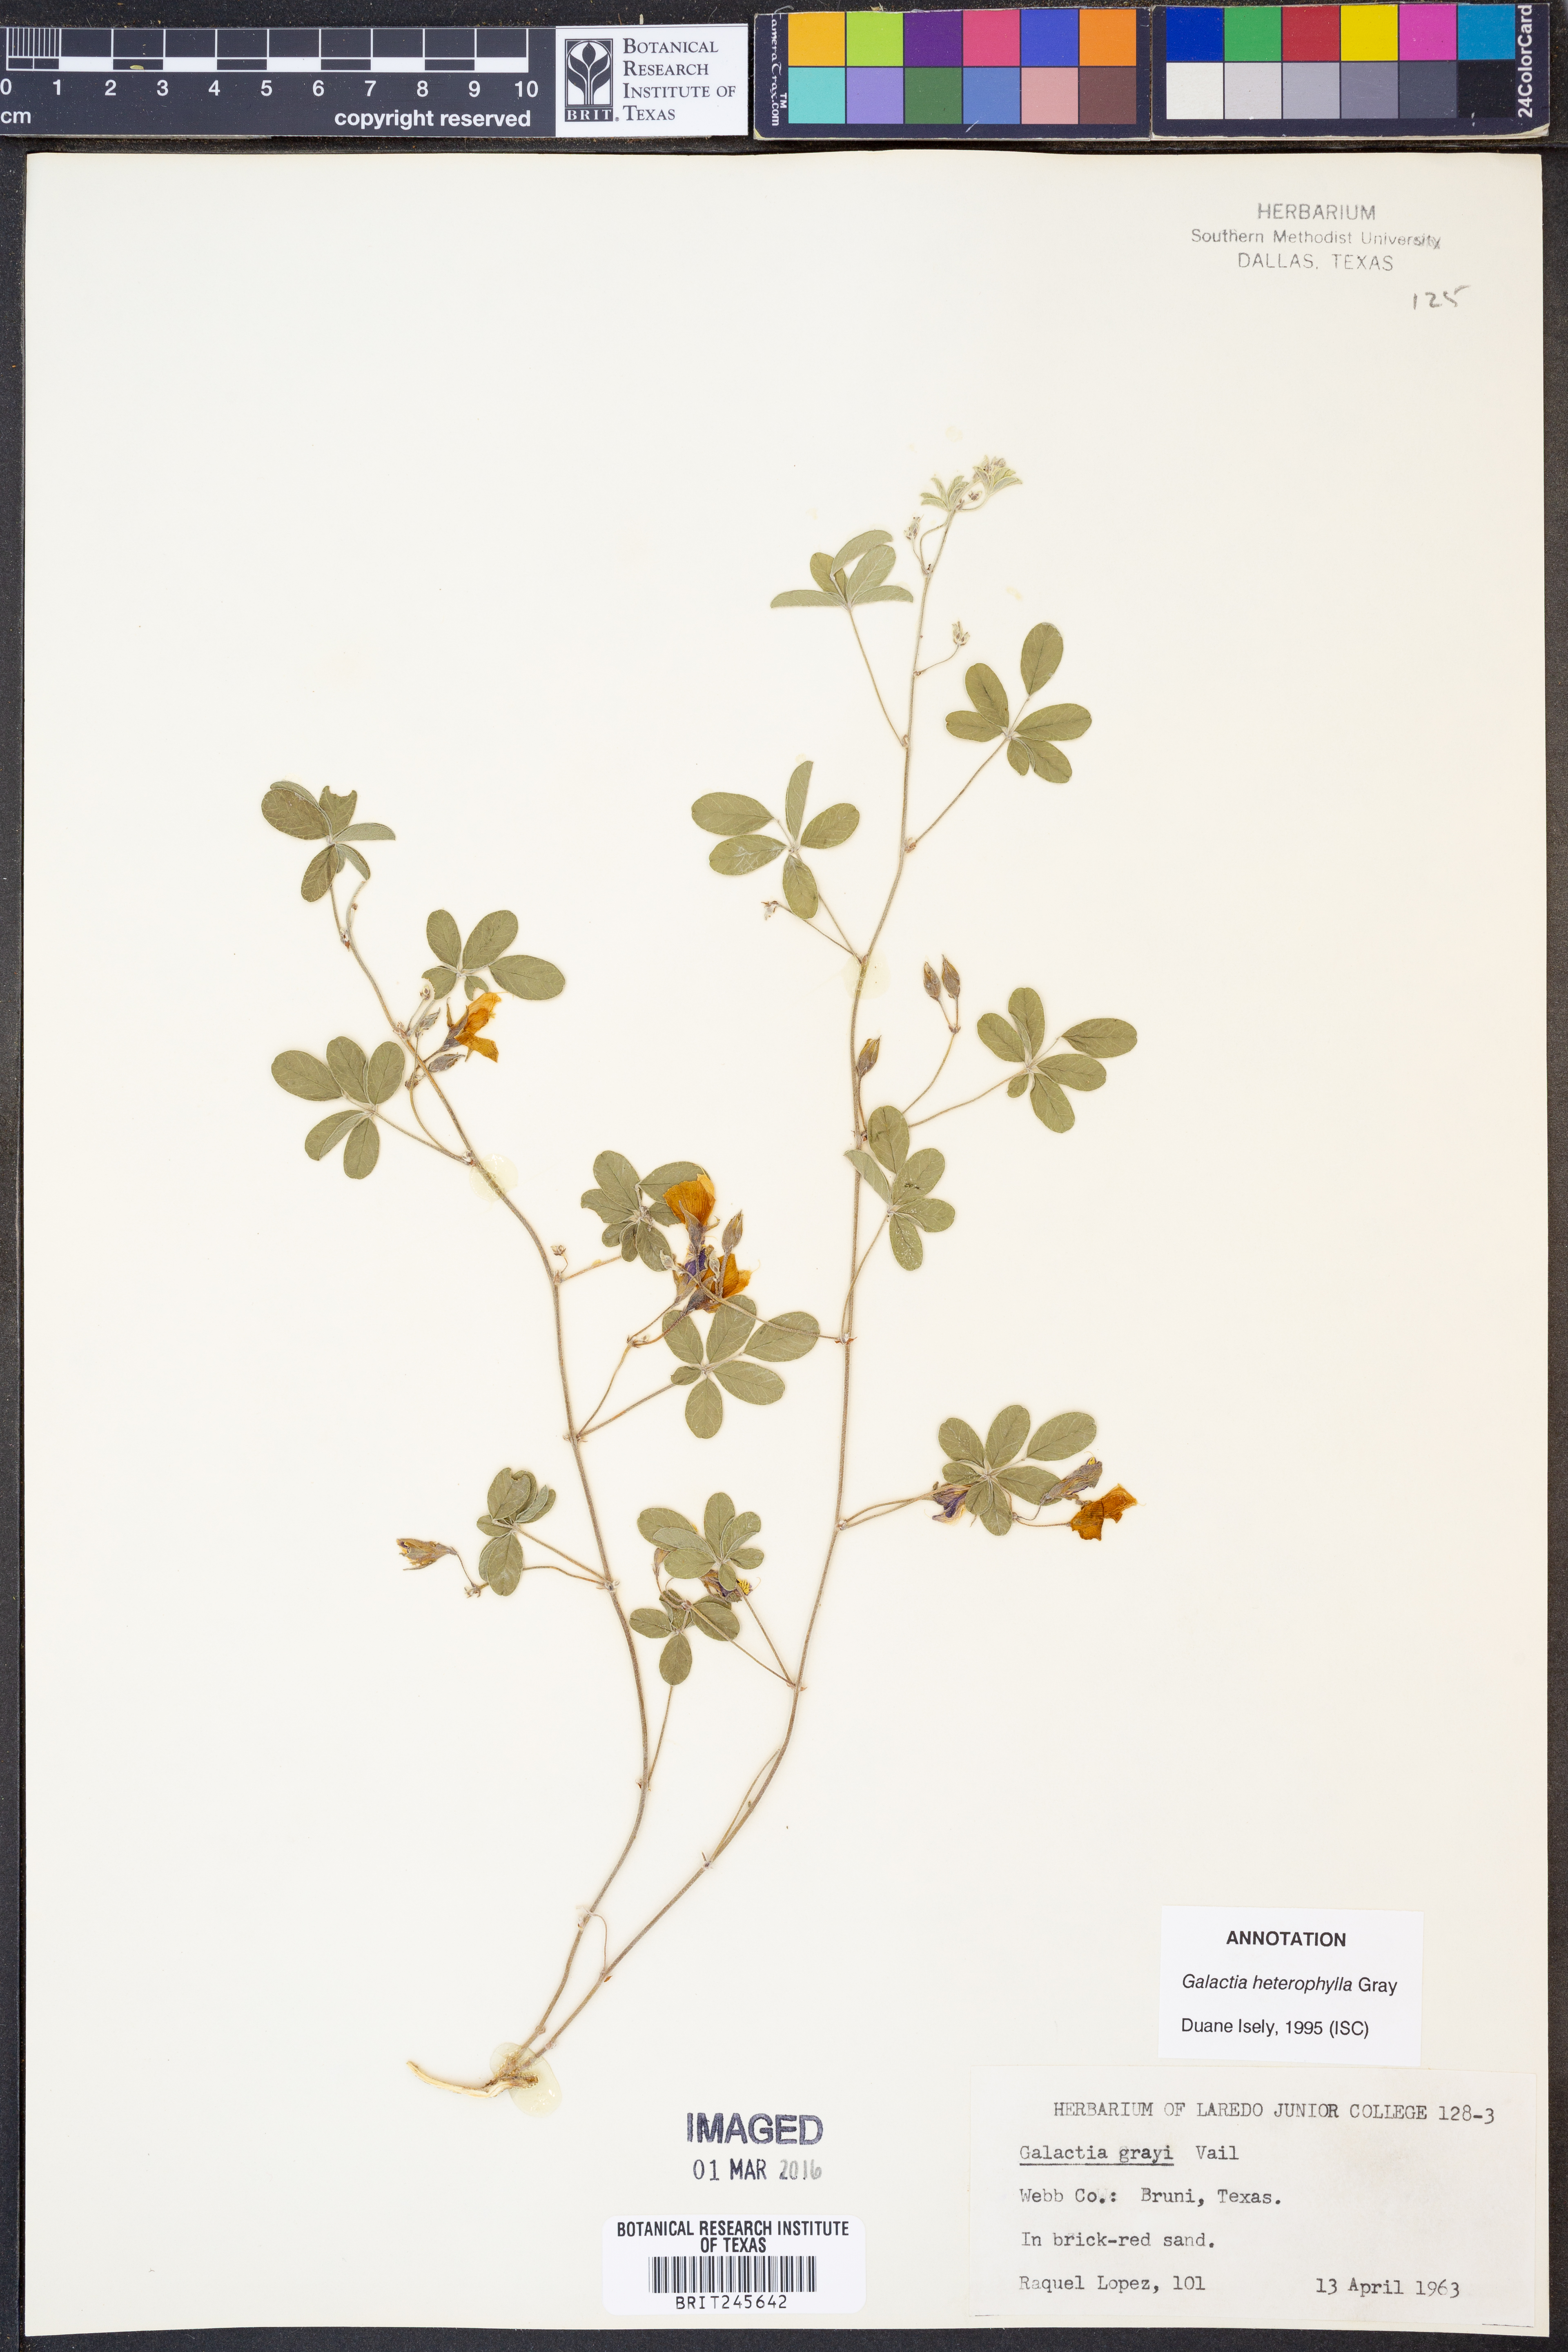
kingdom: Plantae
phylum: Tracheophyta
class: Magnoliopsida
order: Fabales
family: Fabaceae
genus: Galactia
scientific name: Galactia heterophylla
